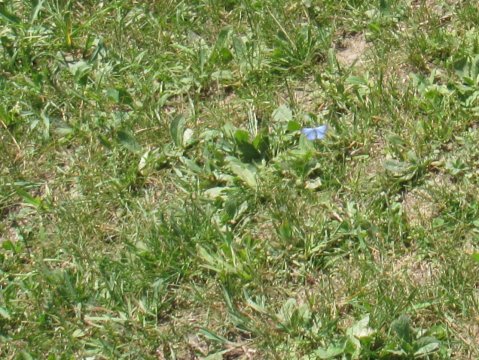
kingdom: Animalia
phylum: Arthropoda
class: Insecta
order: Lepidoptera
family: Lycaenidae
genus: Glaucopsyche
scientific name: Glaucopsyche lygdamus
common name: Silvery Blue
